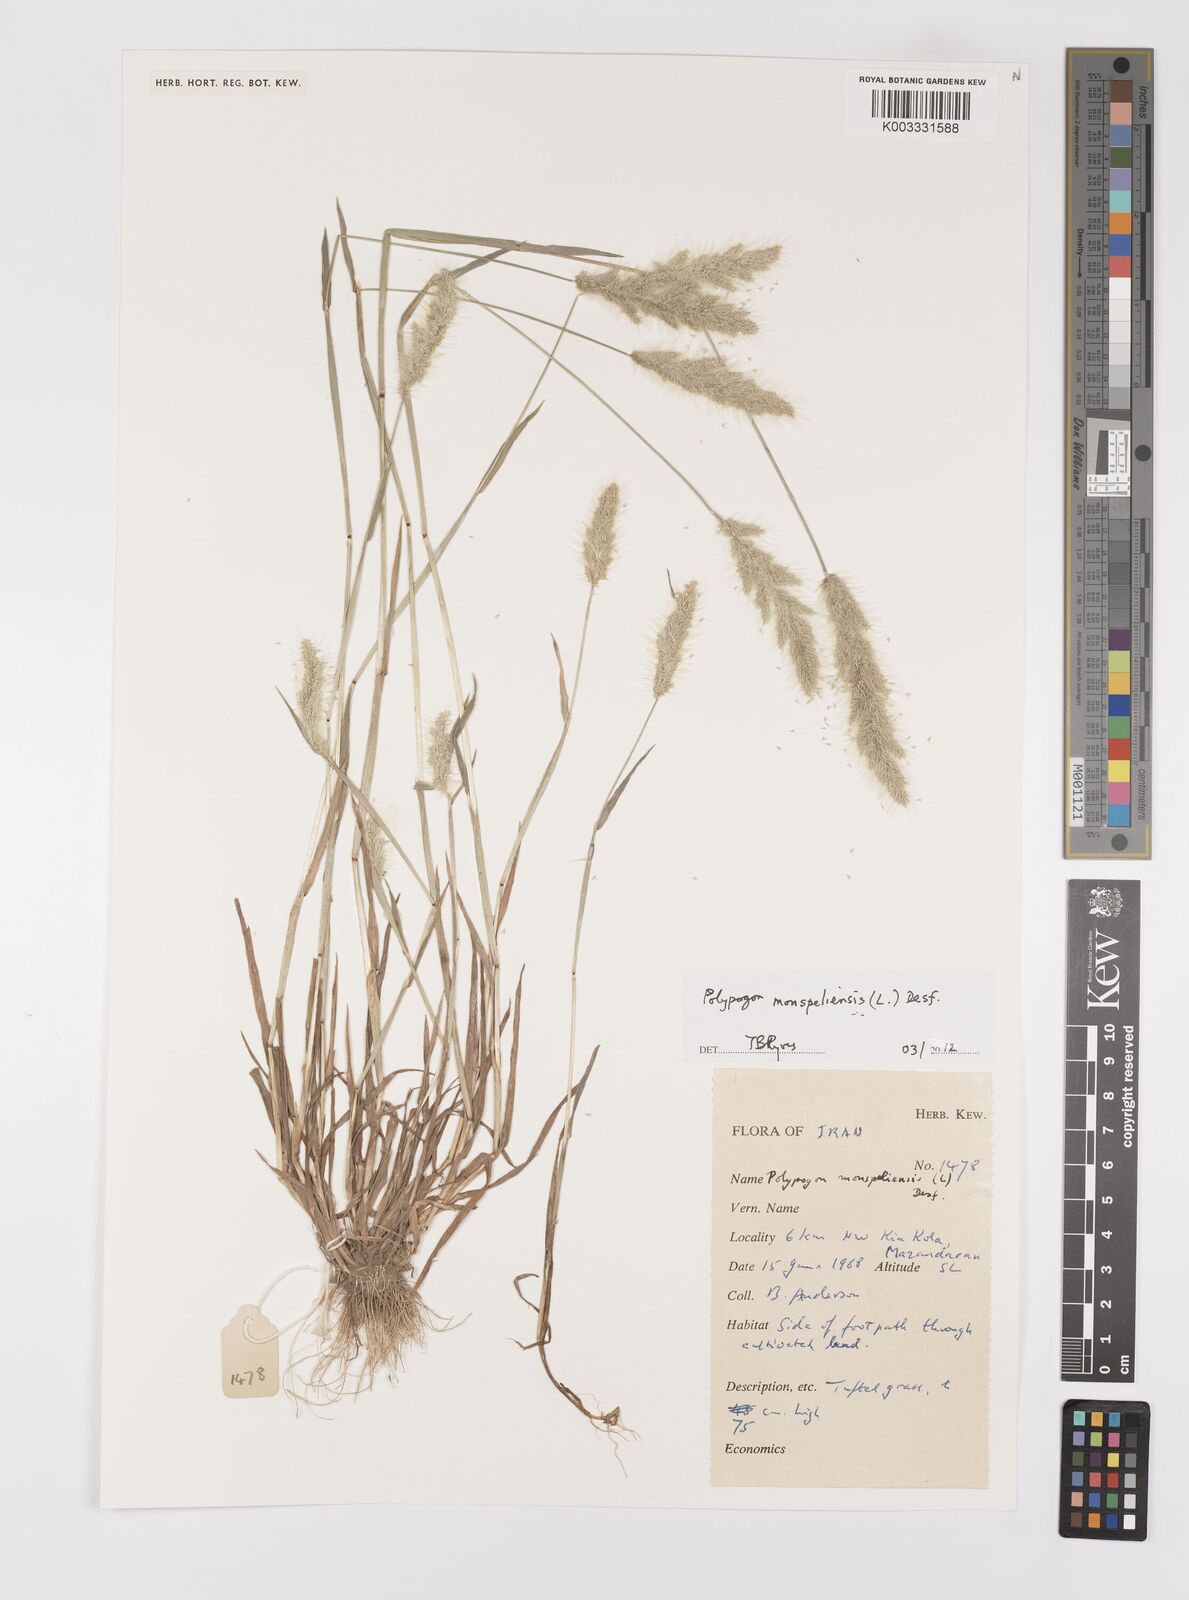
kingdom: Plantae
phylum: Tracheophyta
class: Liliopsida
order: Poales
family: Poaceae
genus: Polypogon
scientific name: Polypogon monspeliensis
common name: Annual rabbitsfoot grass
